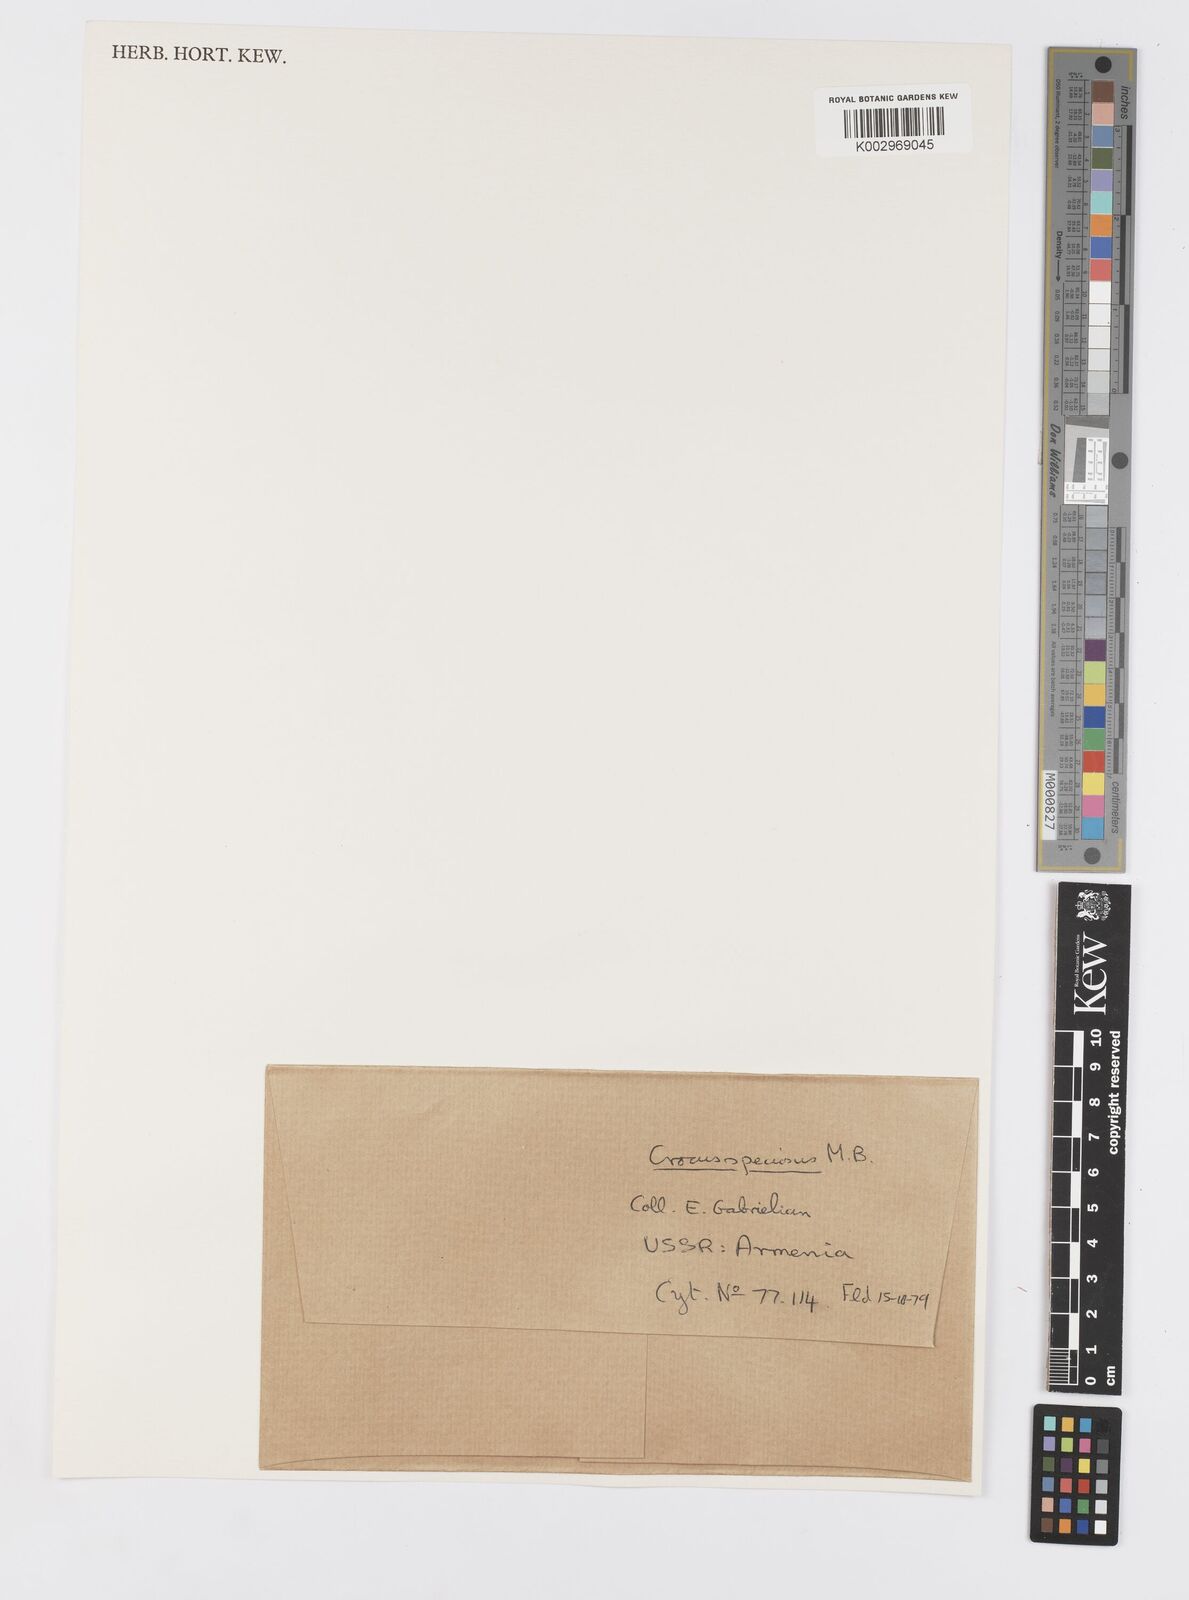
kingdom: Plantae
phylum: Tracheophyta
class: Liliopsida
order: Asparagales
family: Iridaceae
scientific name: Iridaceae
